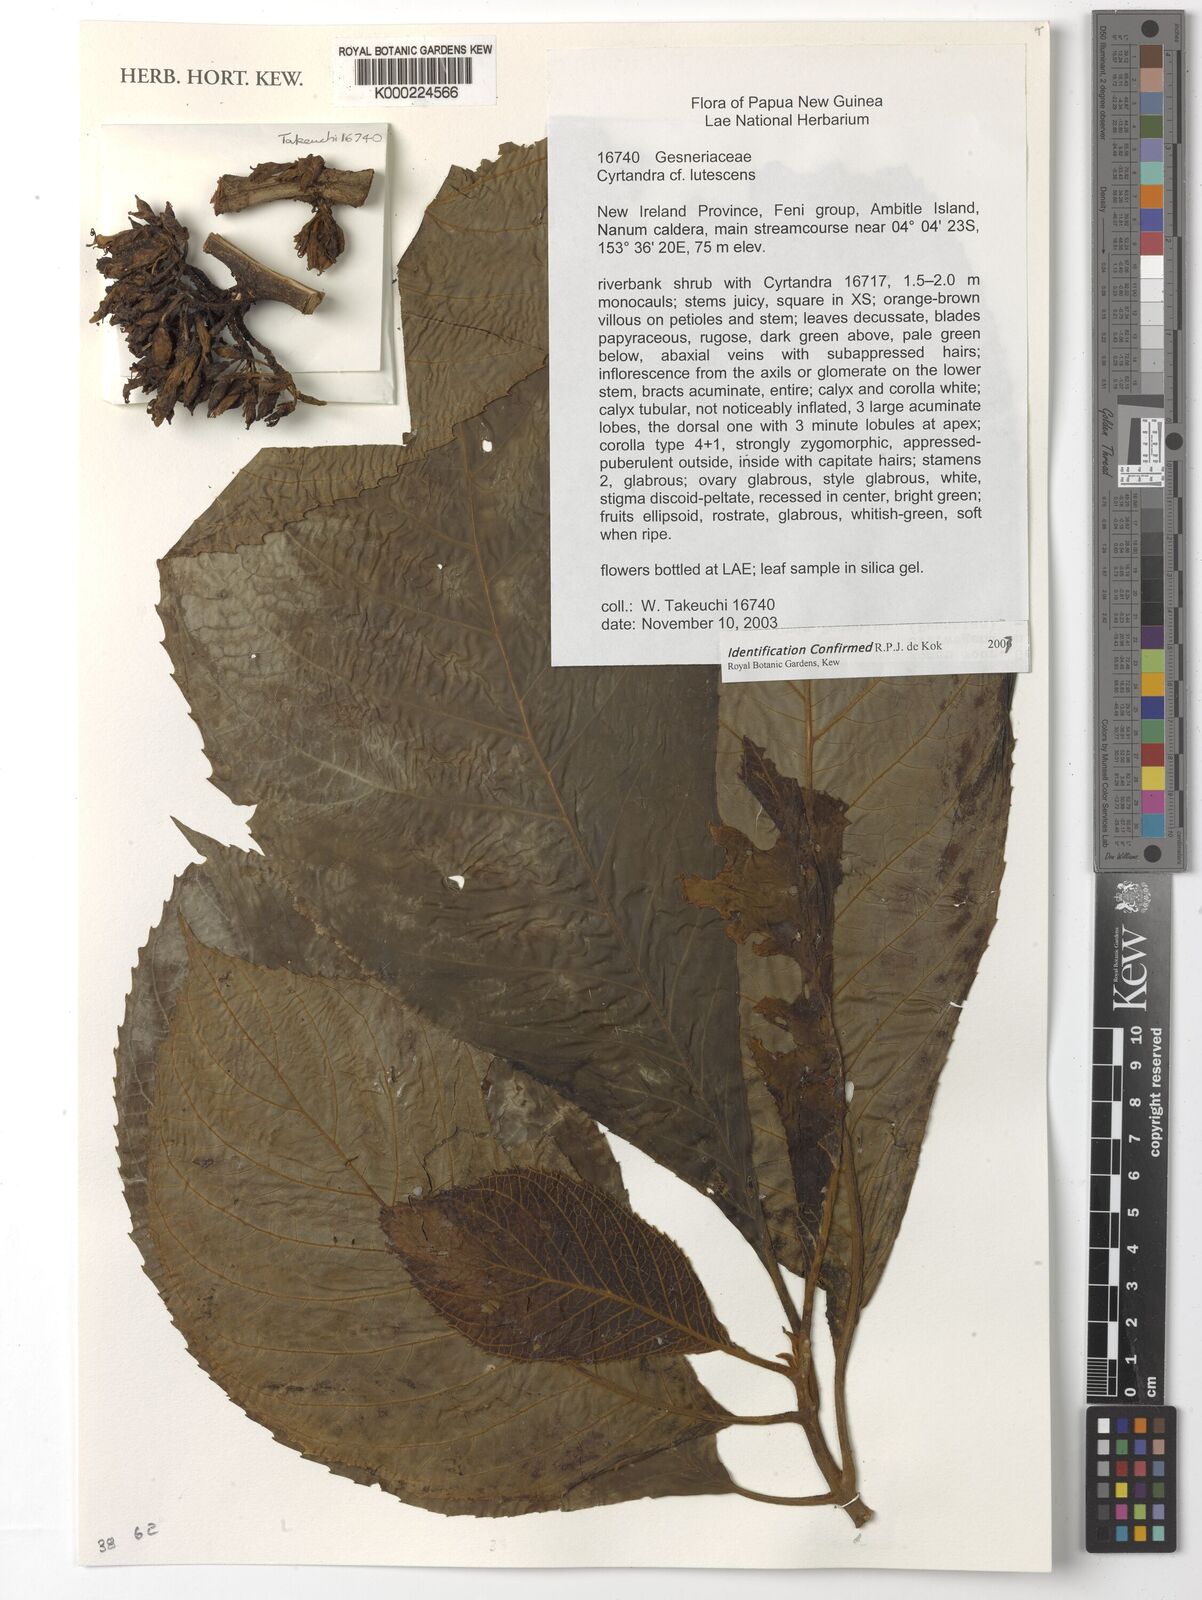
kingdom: Plantae
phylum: Tracheophyta
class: Magnoliopsida
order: Lamiales
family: Gesneriaceae
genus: Cyrtandra
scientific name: Cyrtandra
